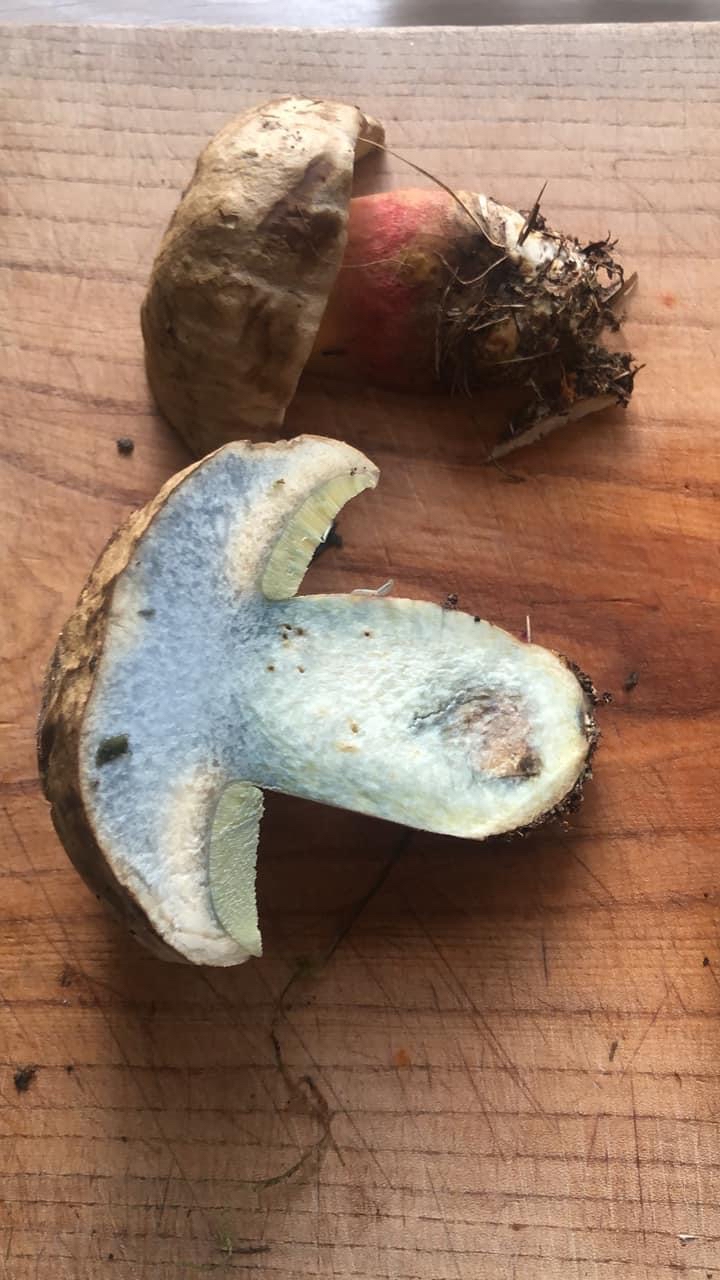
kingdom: Fungi
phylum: Basidiomycota
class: Agaricomycetes
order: Boletales
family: Boletaceae
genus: Caloboletus
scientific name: Caloboletus calopus
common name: skønfodet rørhat
